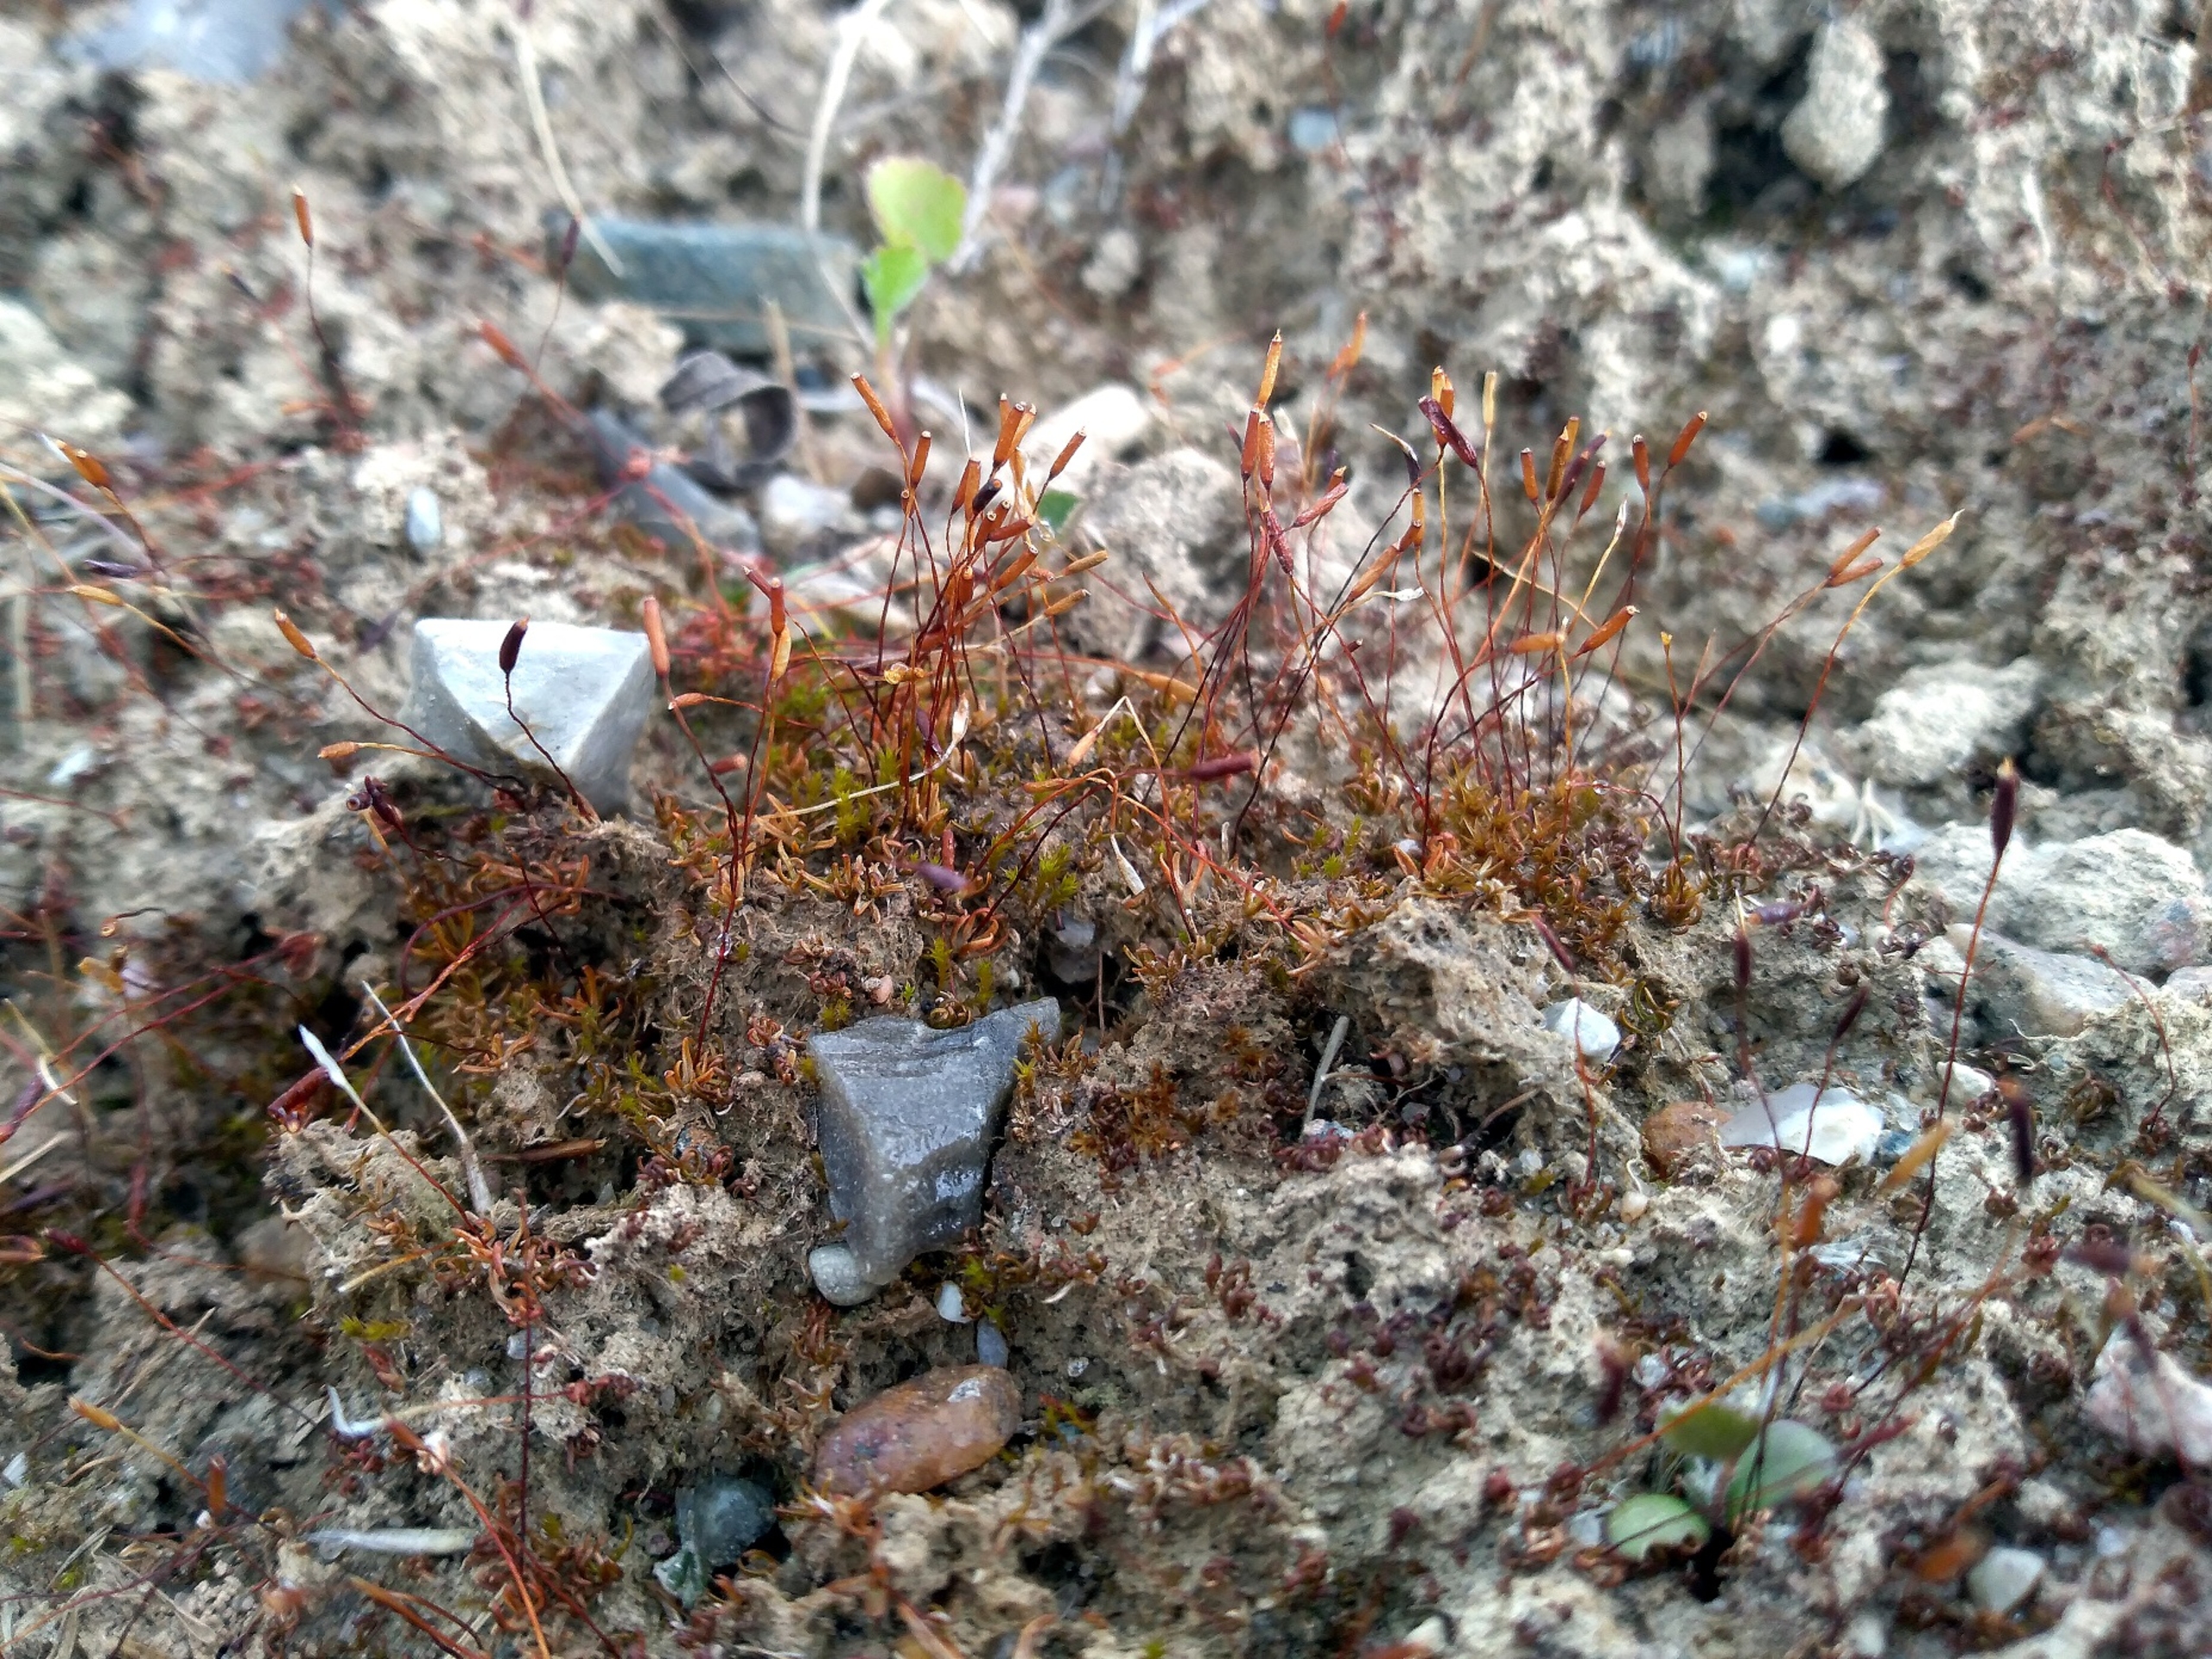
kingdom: Plantae
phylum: Bryophyta
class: Bryopsida
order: Pottiales
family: Pottiaceae
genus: Aloina
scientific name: Aloina ambigua
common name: Krog-tøffelmos
